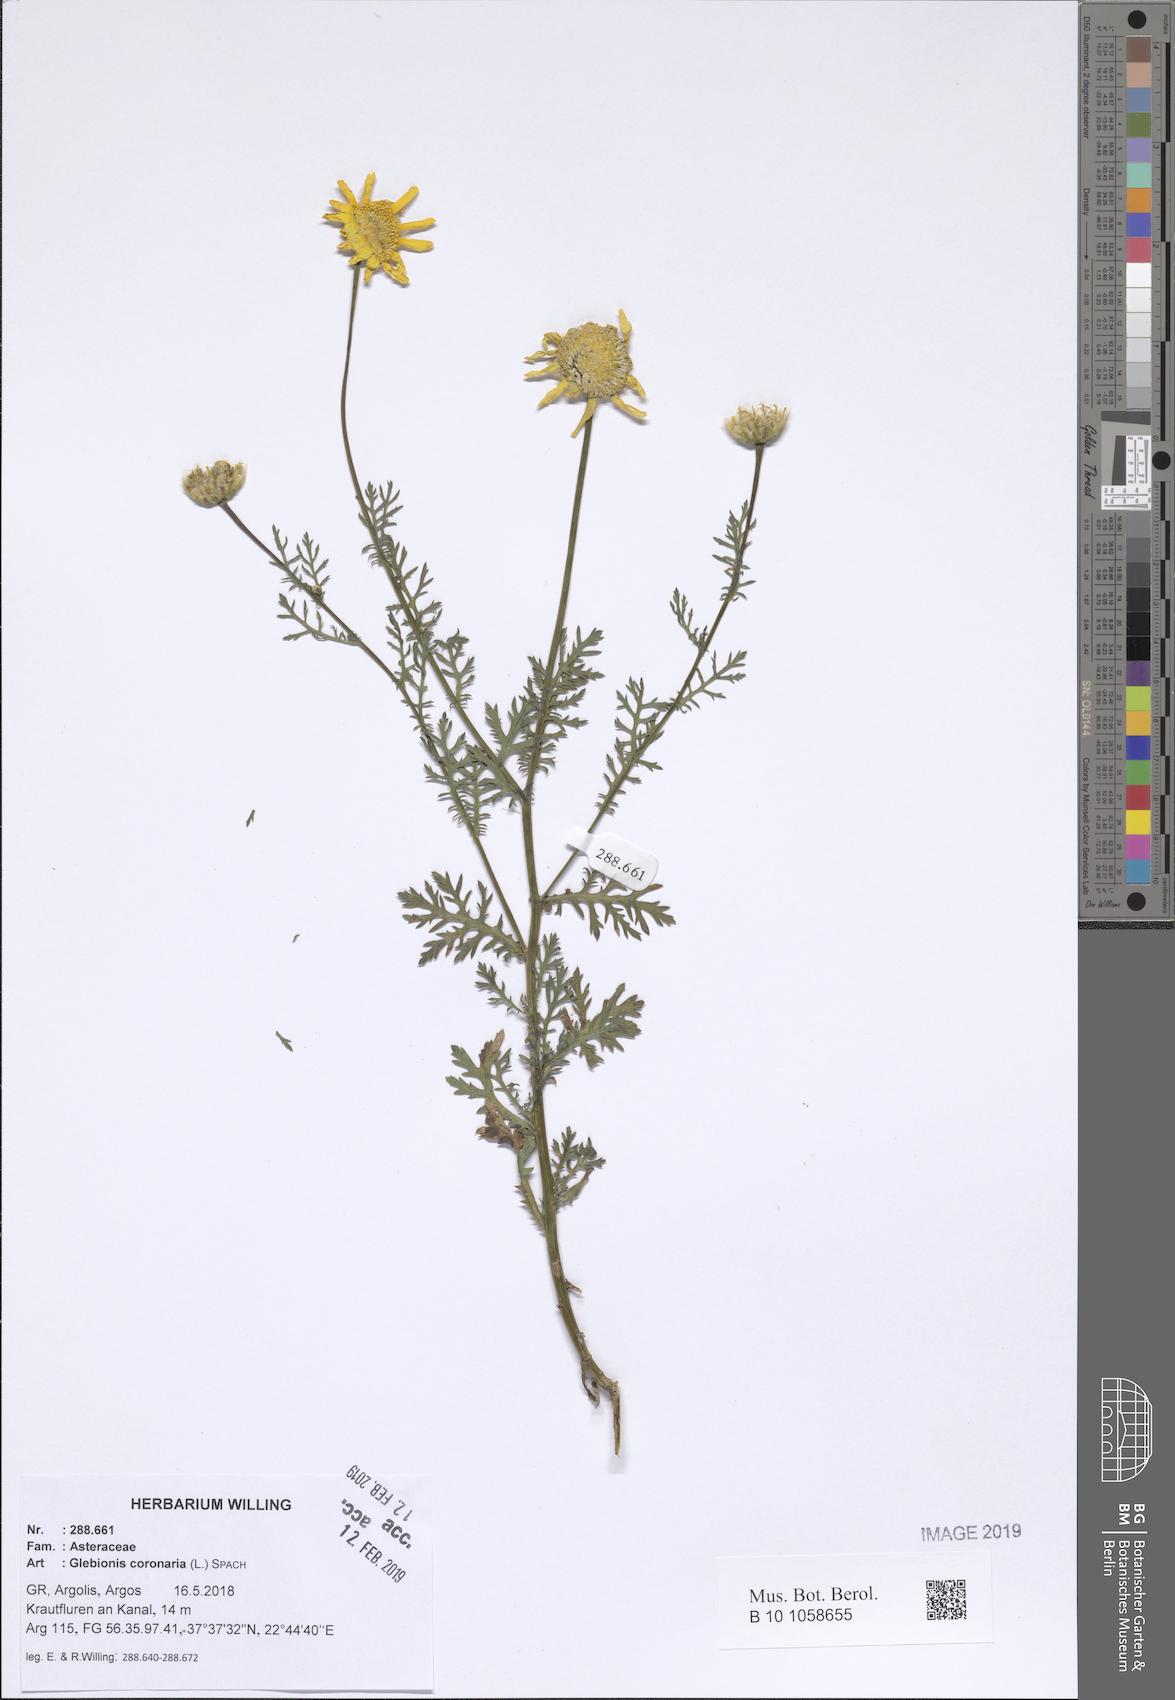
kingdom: Plantae
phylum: Tracheophyta
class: Magnoliopsida
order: Asterales
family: Asteraceae
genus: Glebionis
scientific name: Glebionis coronaria
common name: Crowndaisy
